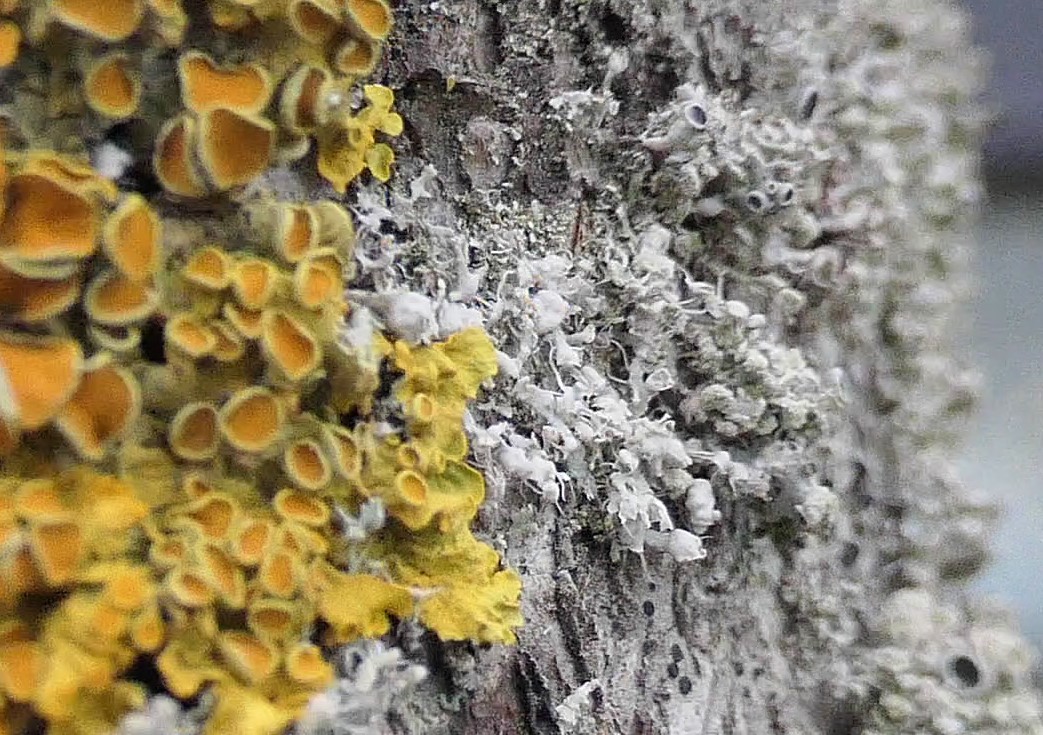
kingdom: Fungi
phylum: Ascomycota
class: Lecanoromycetes
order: Caliciales
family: Physciaceae
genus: Physcia
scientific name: Physcia adscendens
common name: hætte-rosetlav
